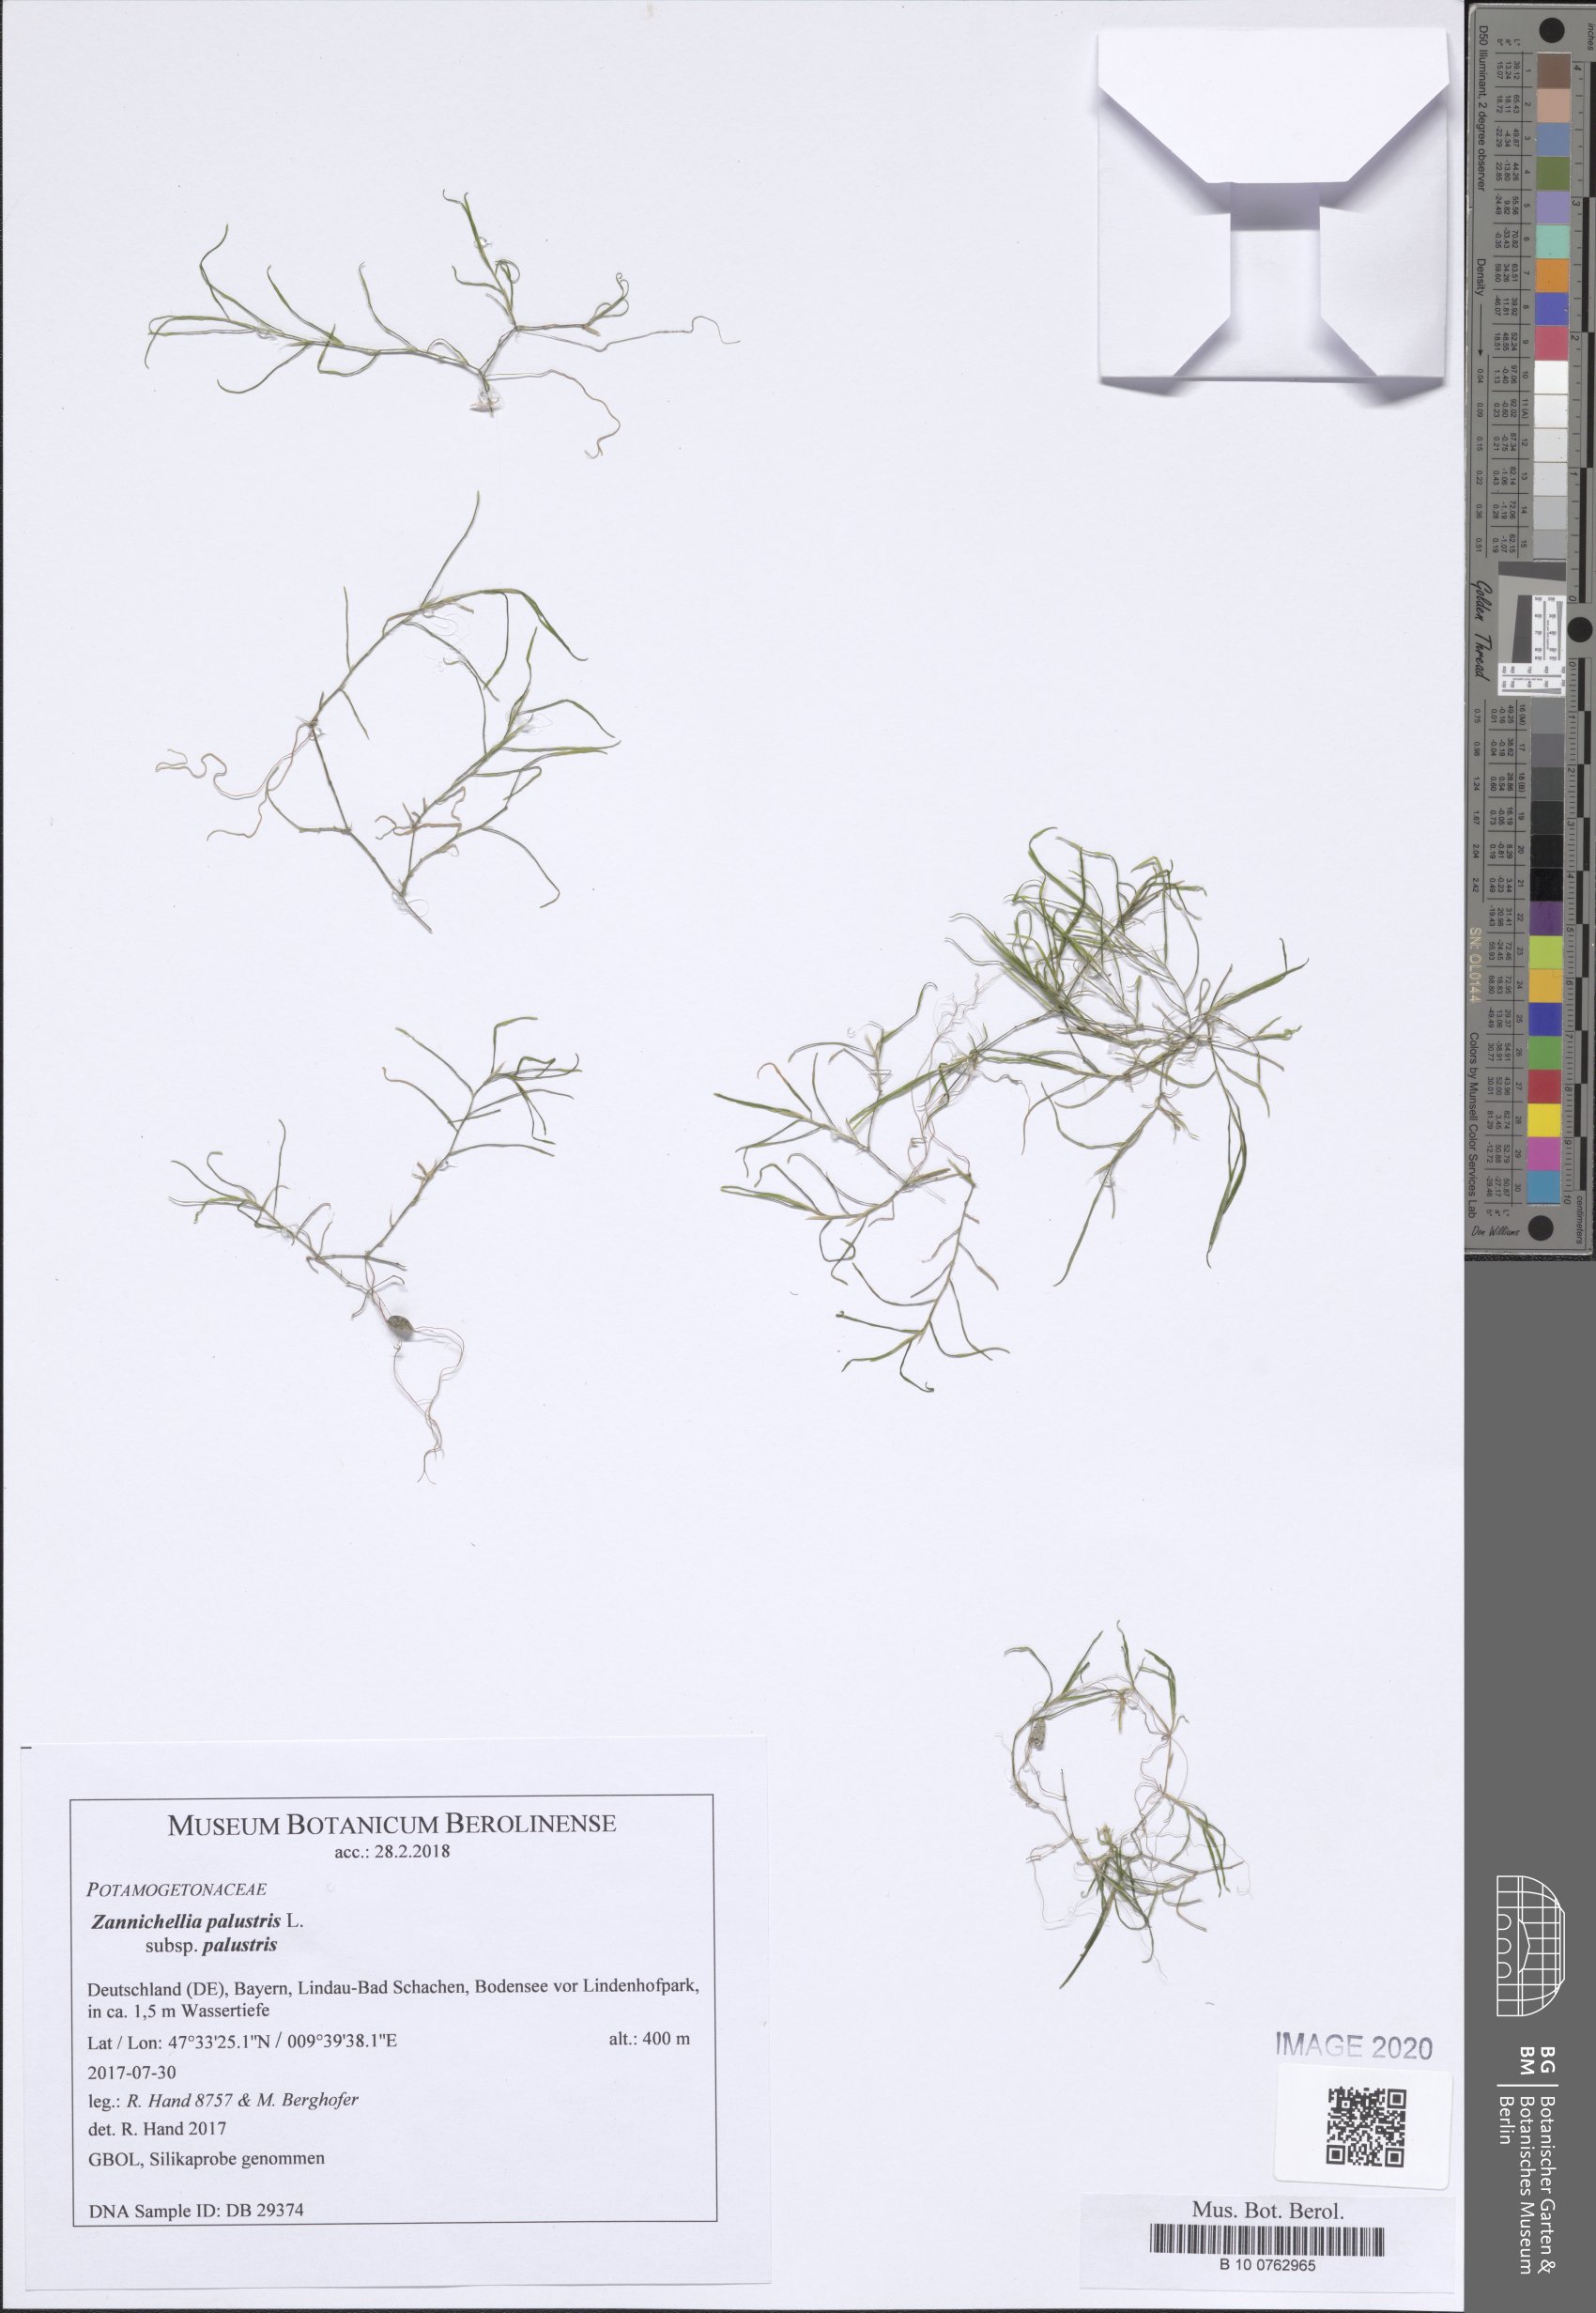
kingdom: Plantae
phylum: Tracheophyta
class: Liliopsida
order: Alismatales
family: Potamogetonaceae
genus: Zannichellia
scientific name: Zannichellia palustris
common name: Horned pondweed
